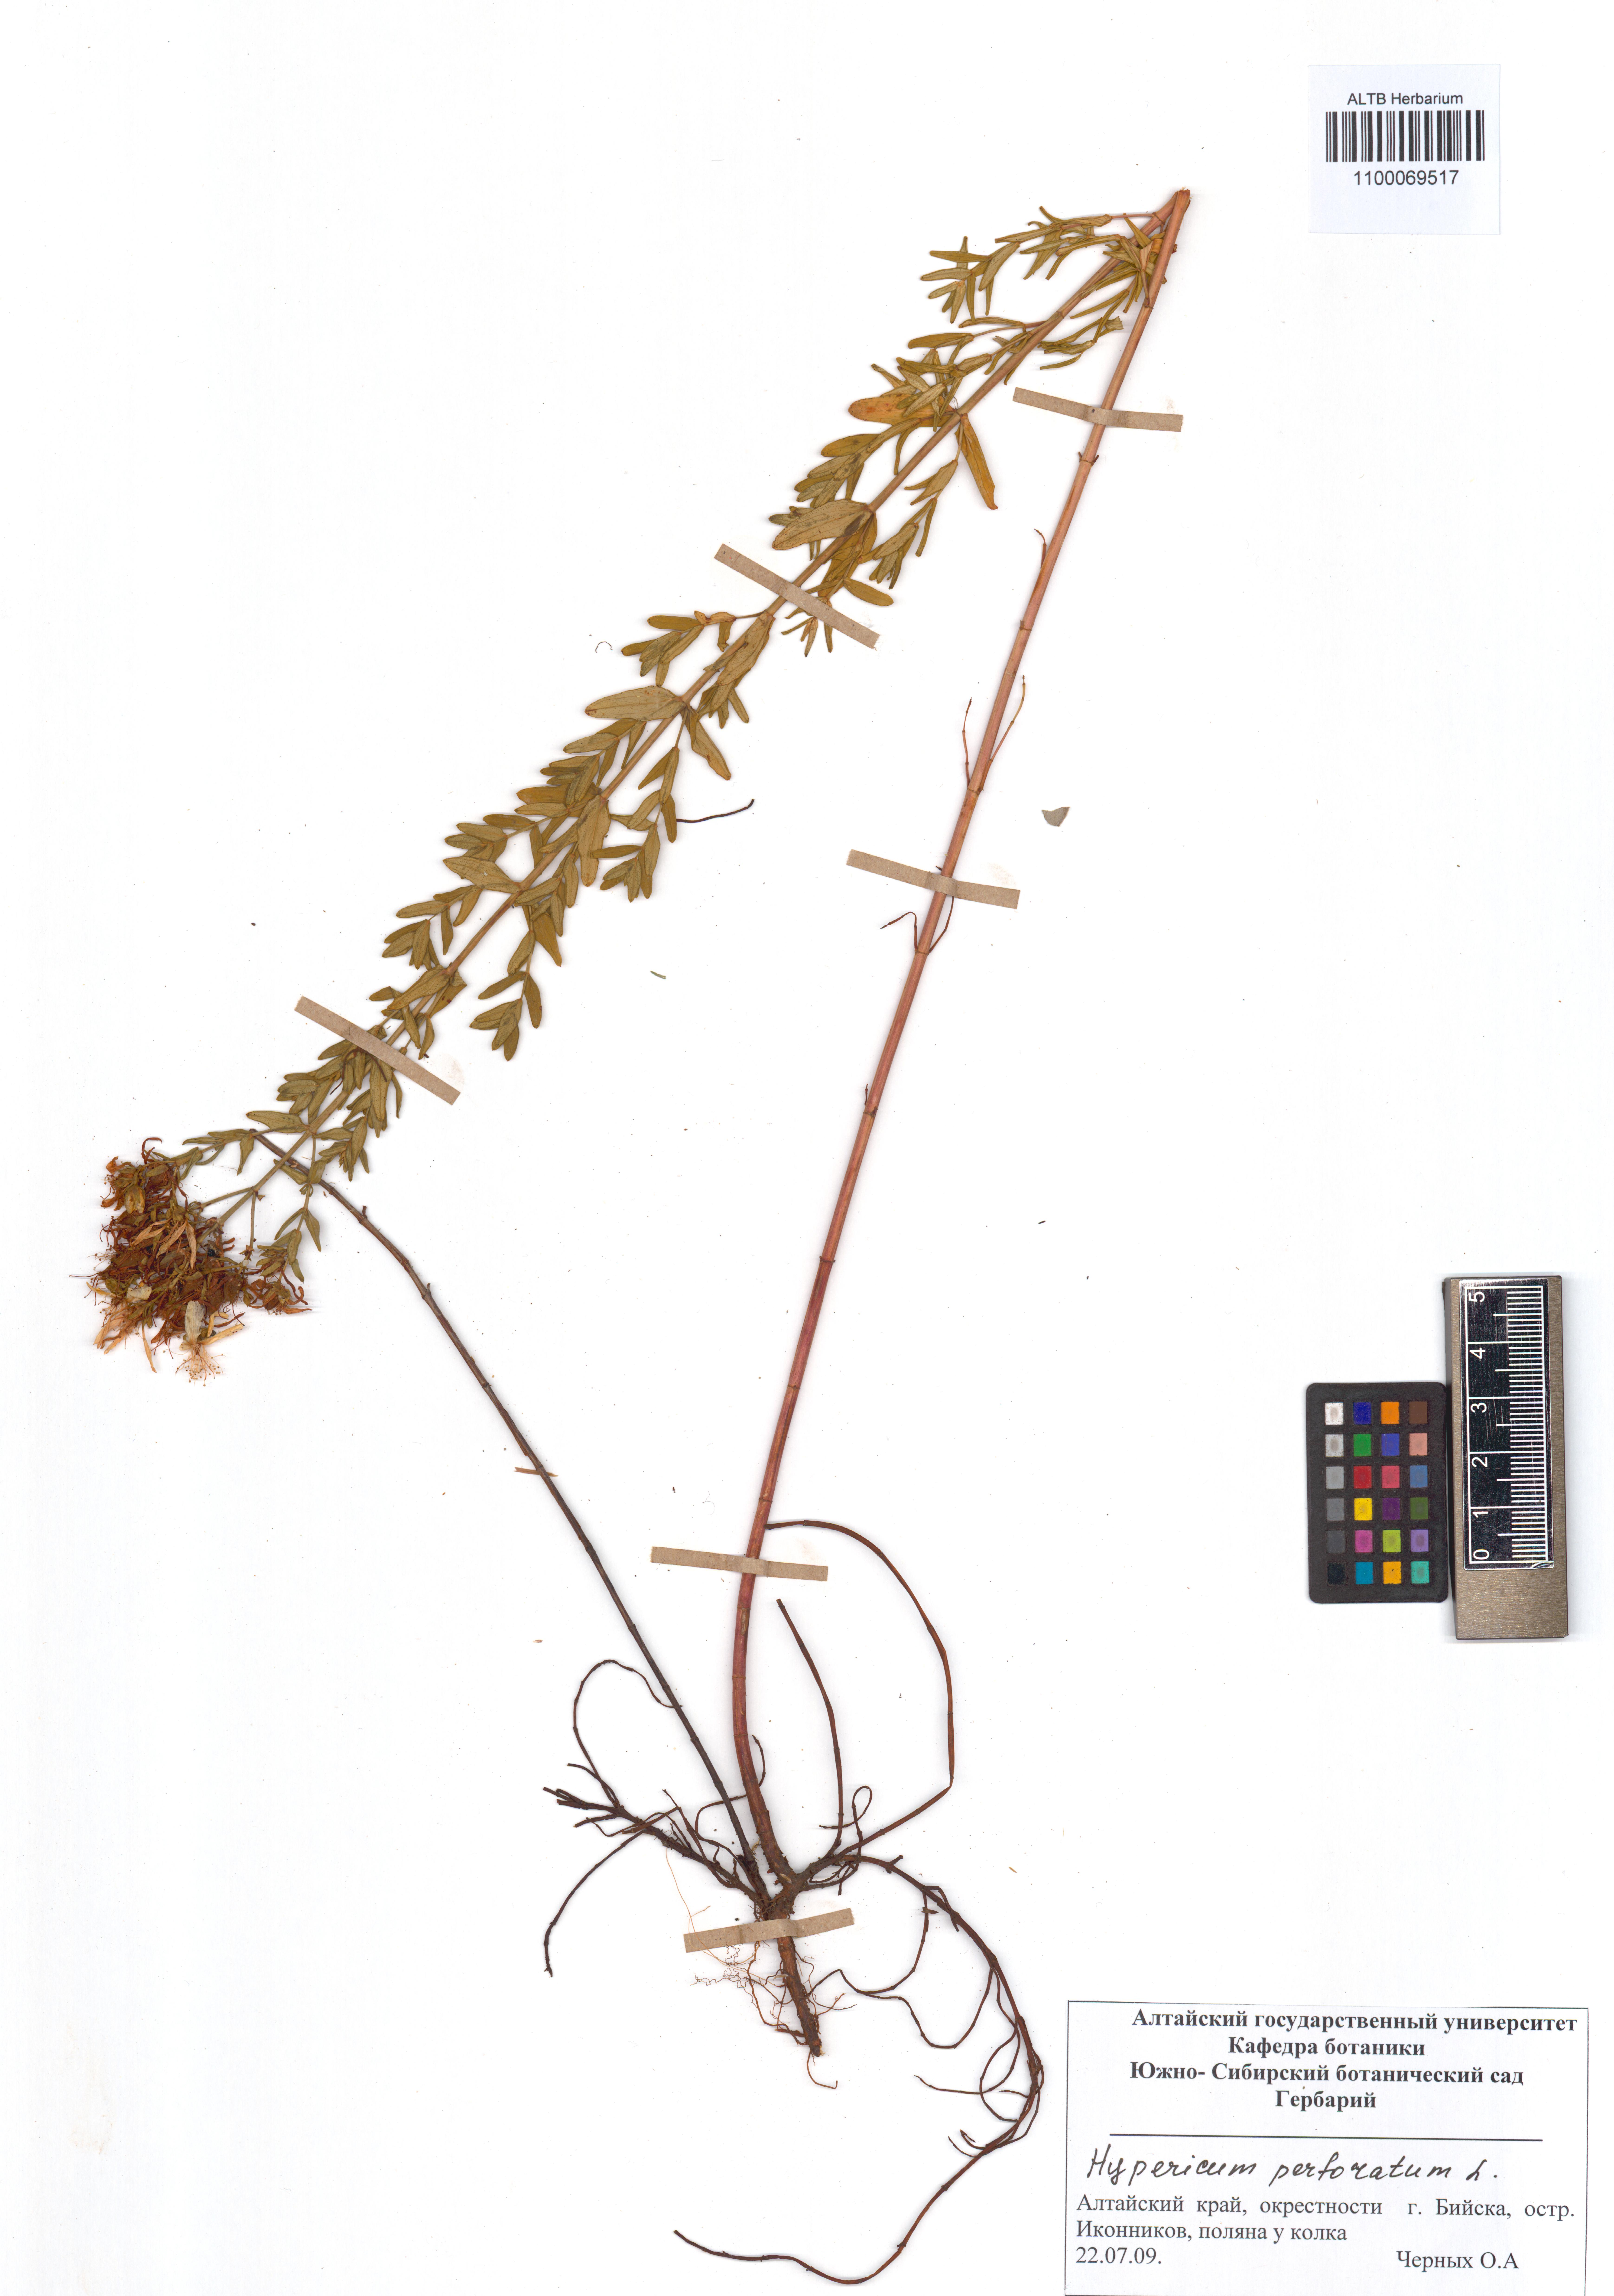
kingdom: Plantae
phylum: Tracheophyta
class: Magnoliopsida
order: Malpighiales
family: Hypericaceae
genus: Hypericum
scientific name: Hypericum perforatum
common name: Common st. johnswort
